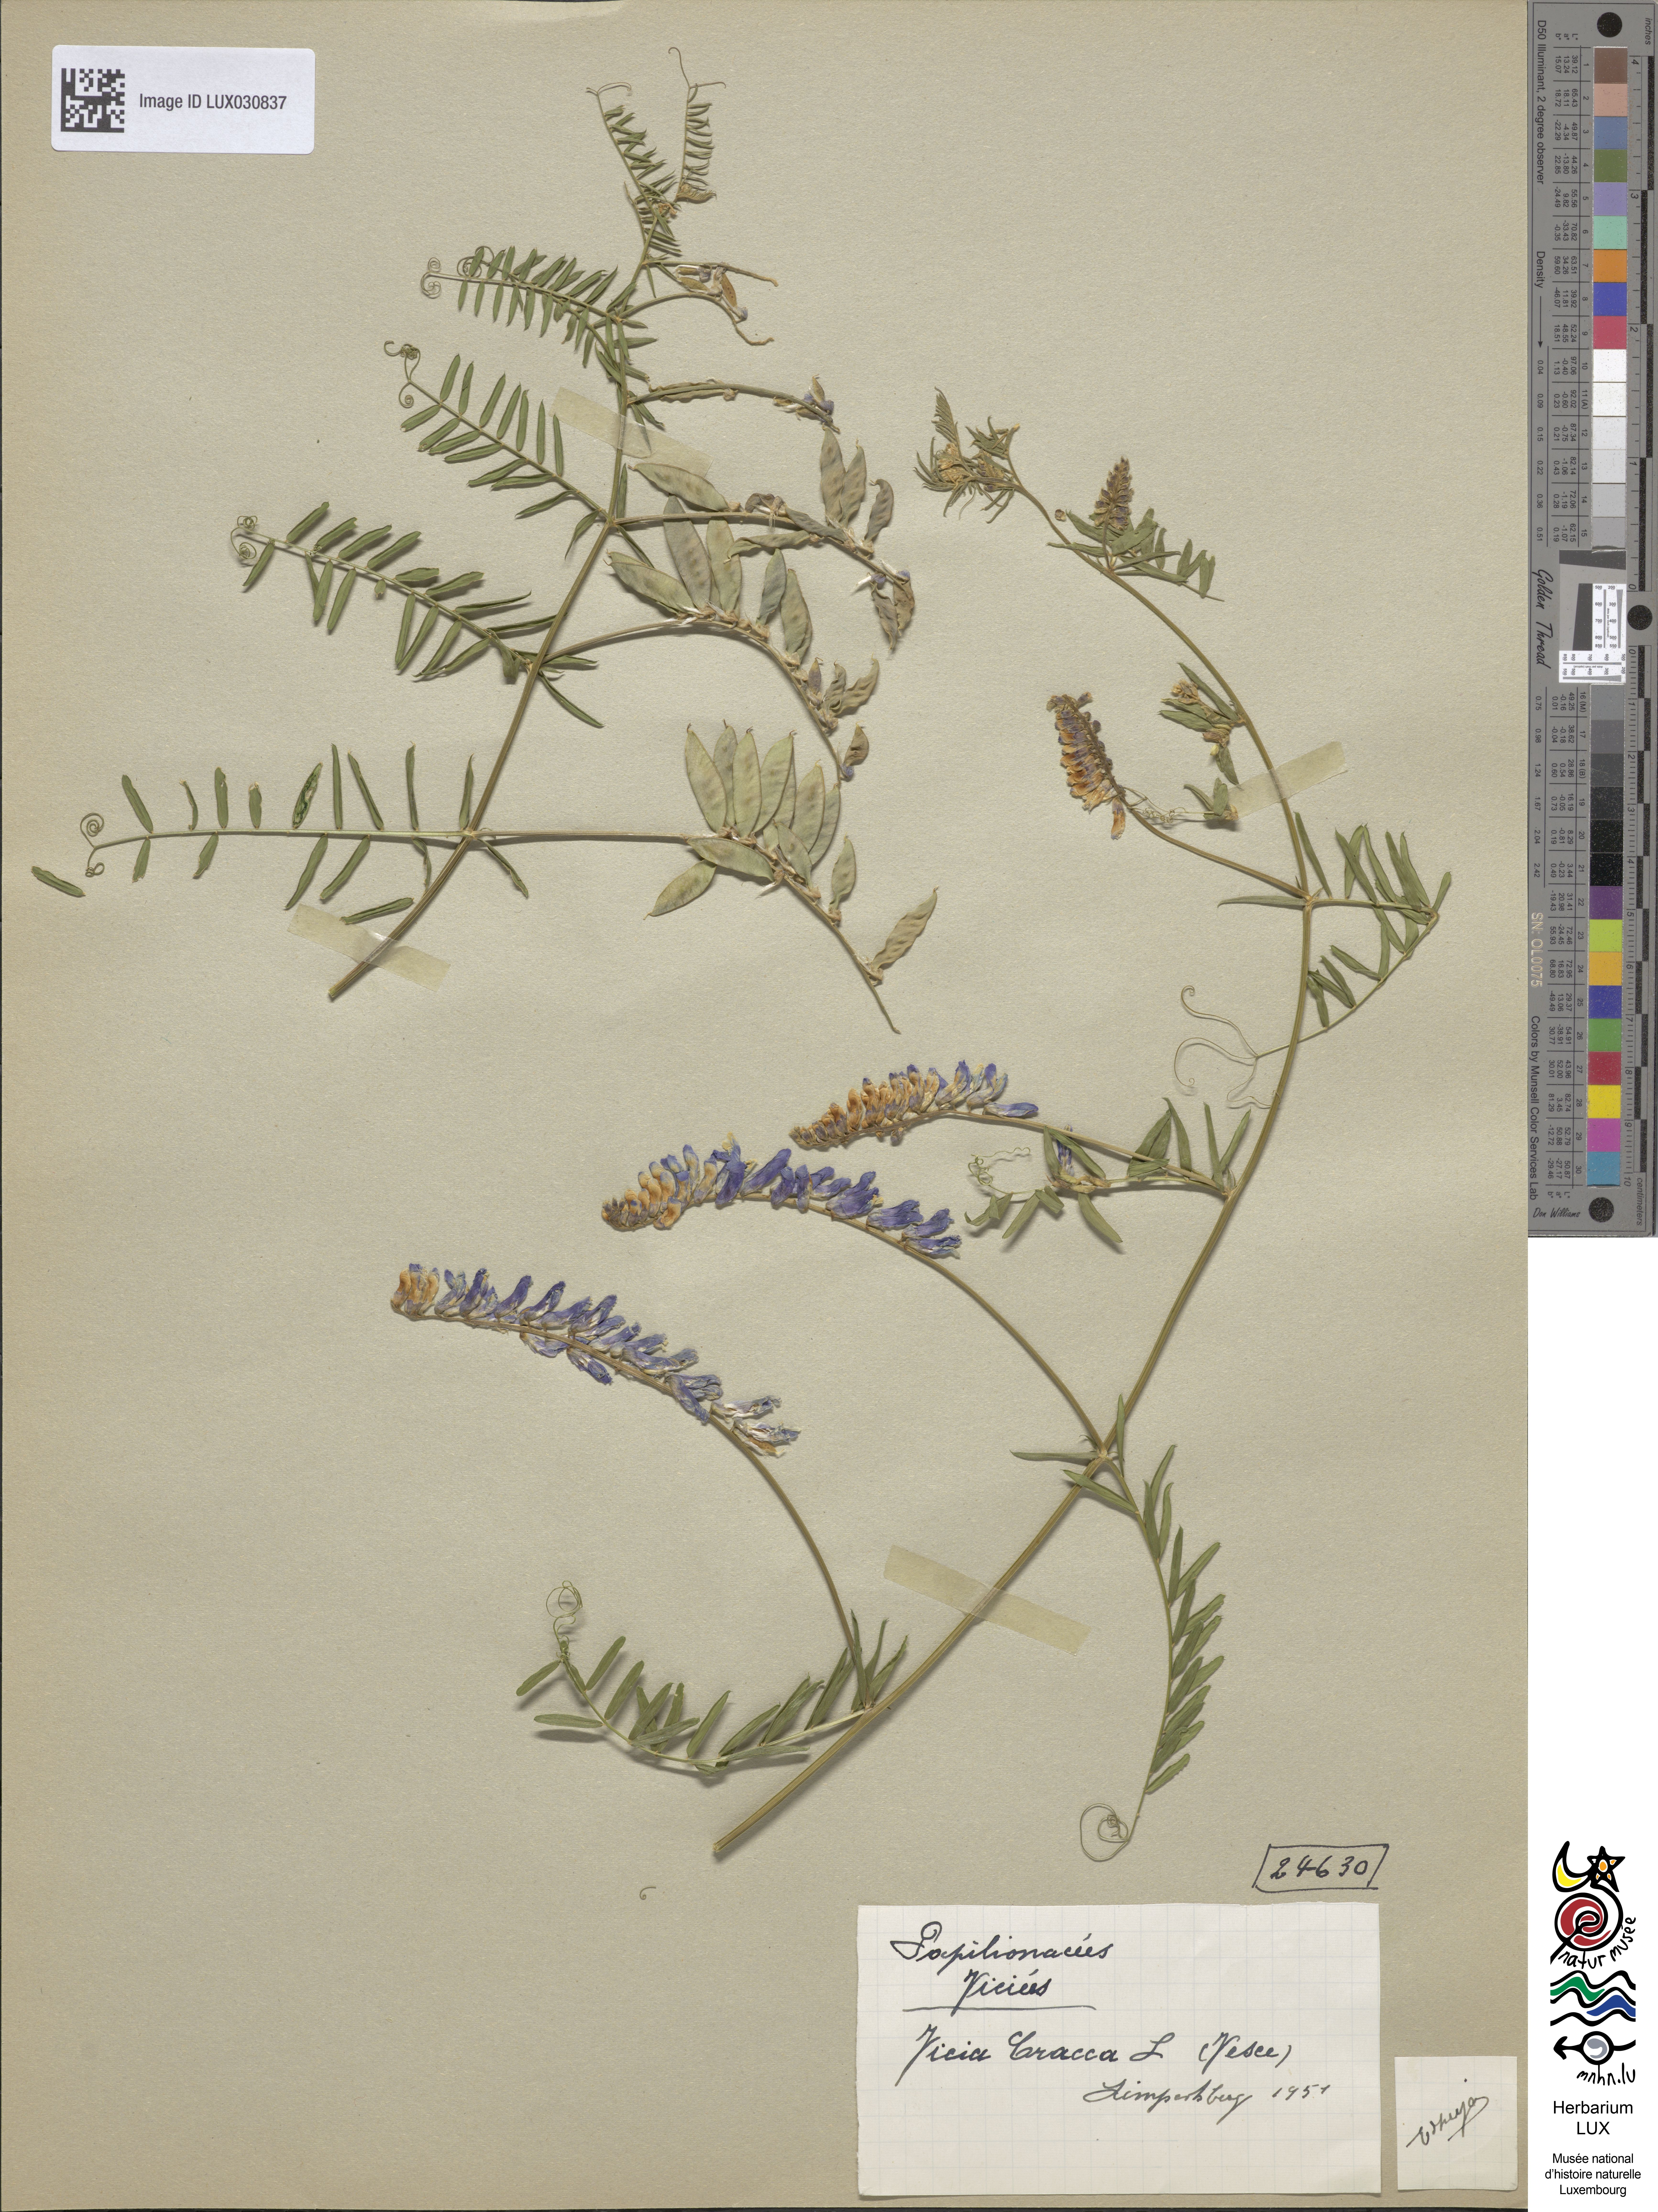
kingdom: Plantae
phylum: Tracheophyta
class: Magnoliopsida
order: Fabales
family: Fabaceae
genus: Vicia
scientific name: Vicia cracca
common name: Bird vetch
